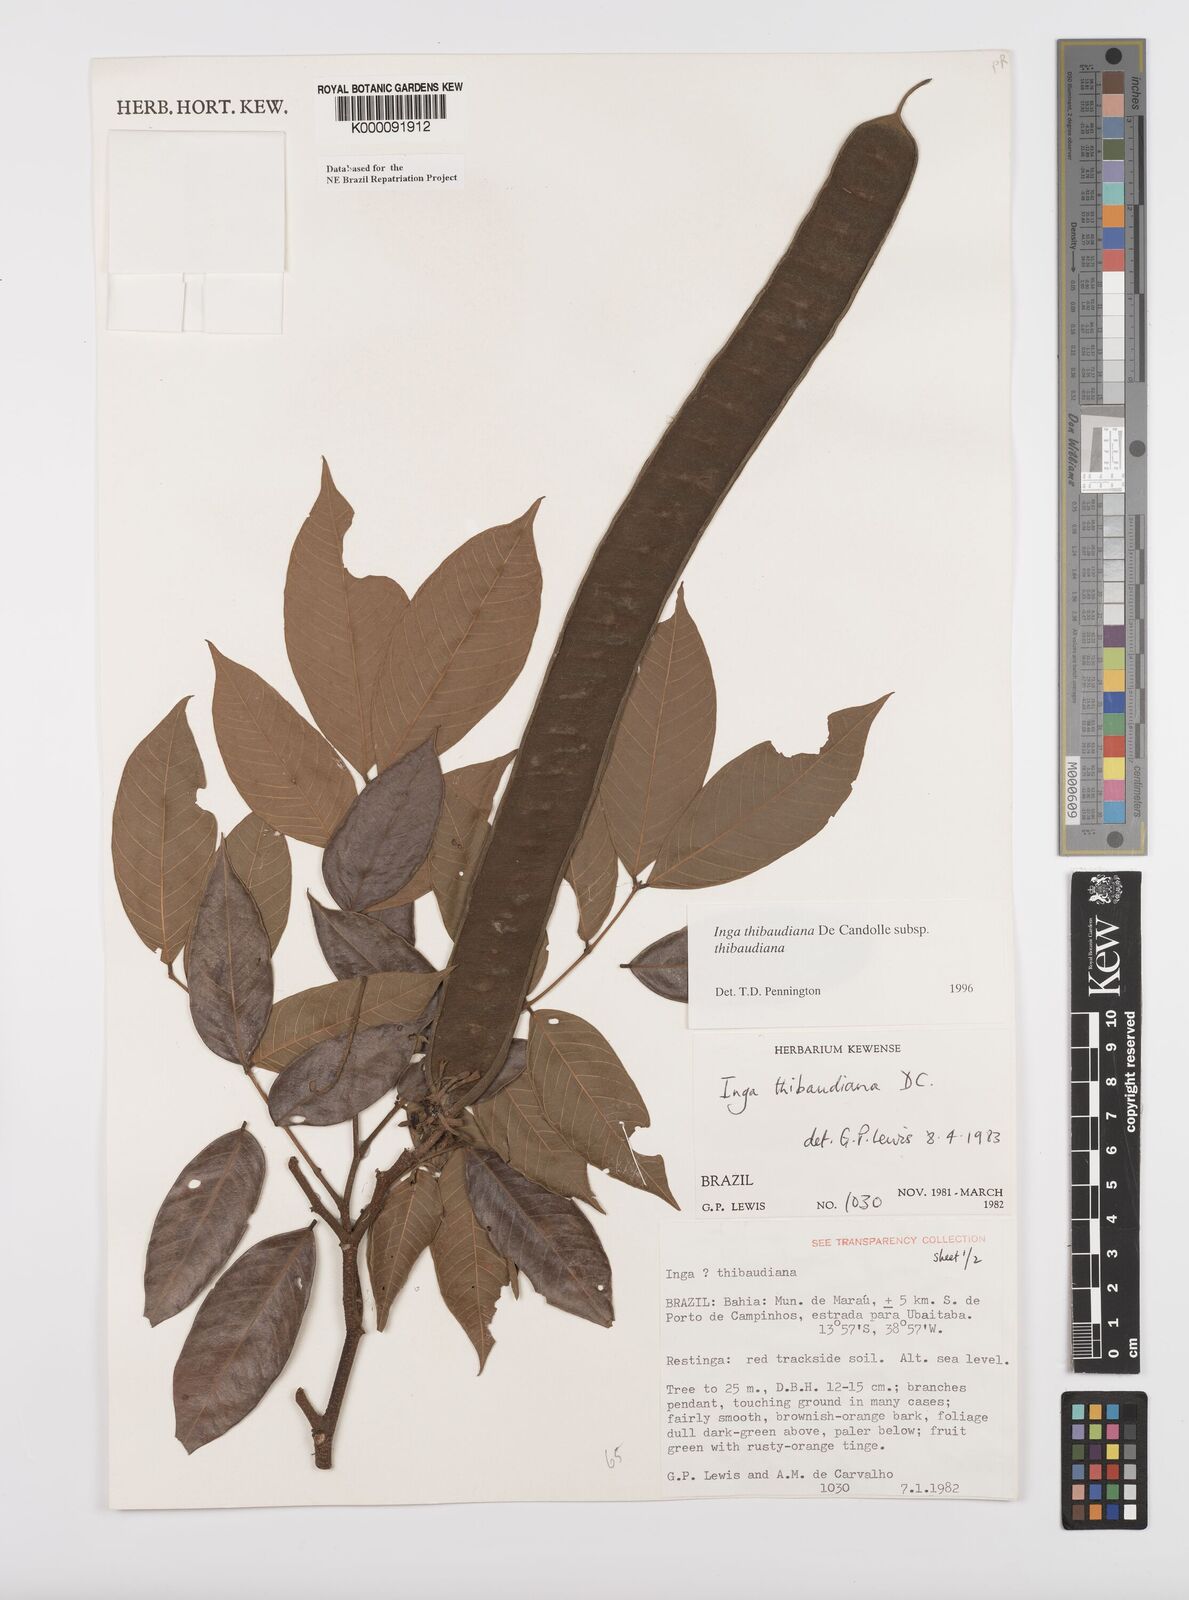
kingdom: Plantae
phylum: Tracheophyta
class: Magnoliopsida
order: Fabales
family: Fabaceae
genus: Inga
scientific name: Inga thibaudiana
